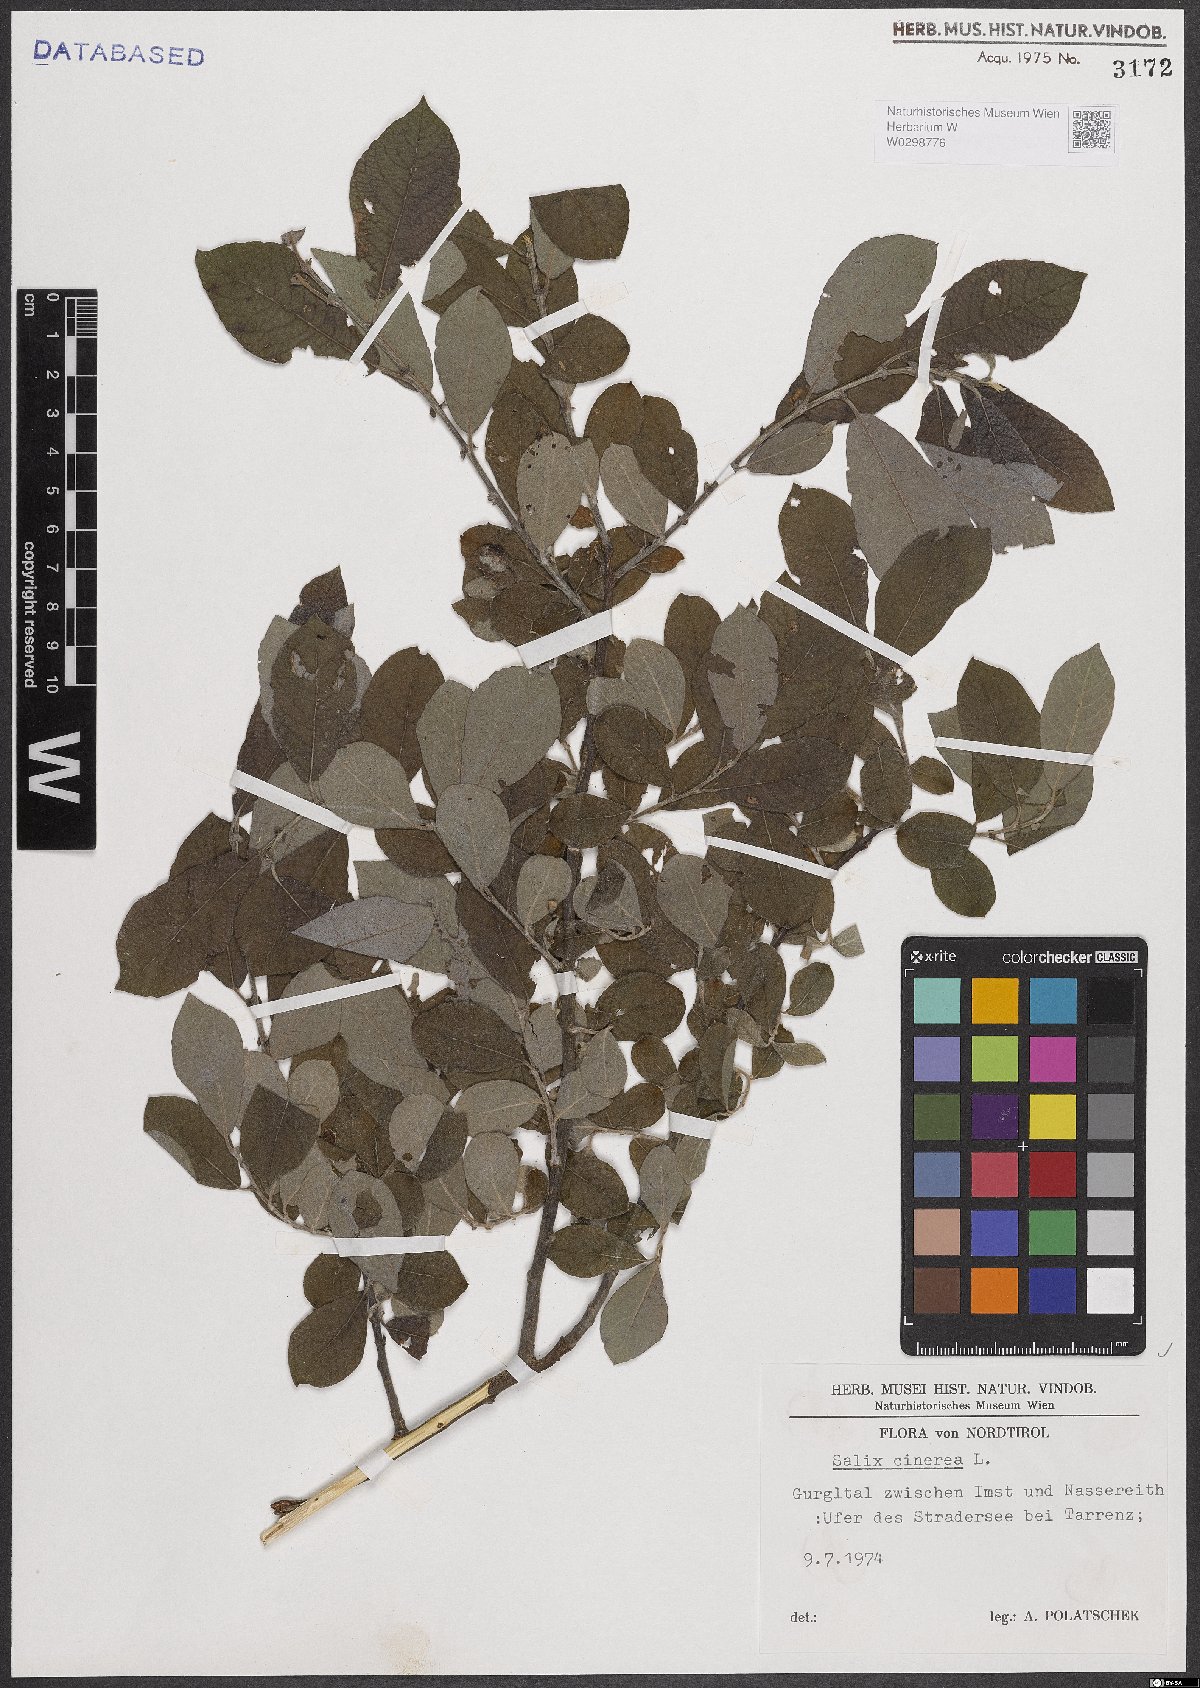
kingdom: Plantae
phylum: Tracheophyta
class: Magnoliopsida
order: Malpighiales
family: Salicaceae
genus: Salix
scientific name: Salix cinerea
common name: Common sallow
